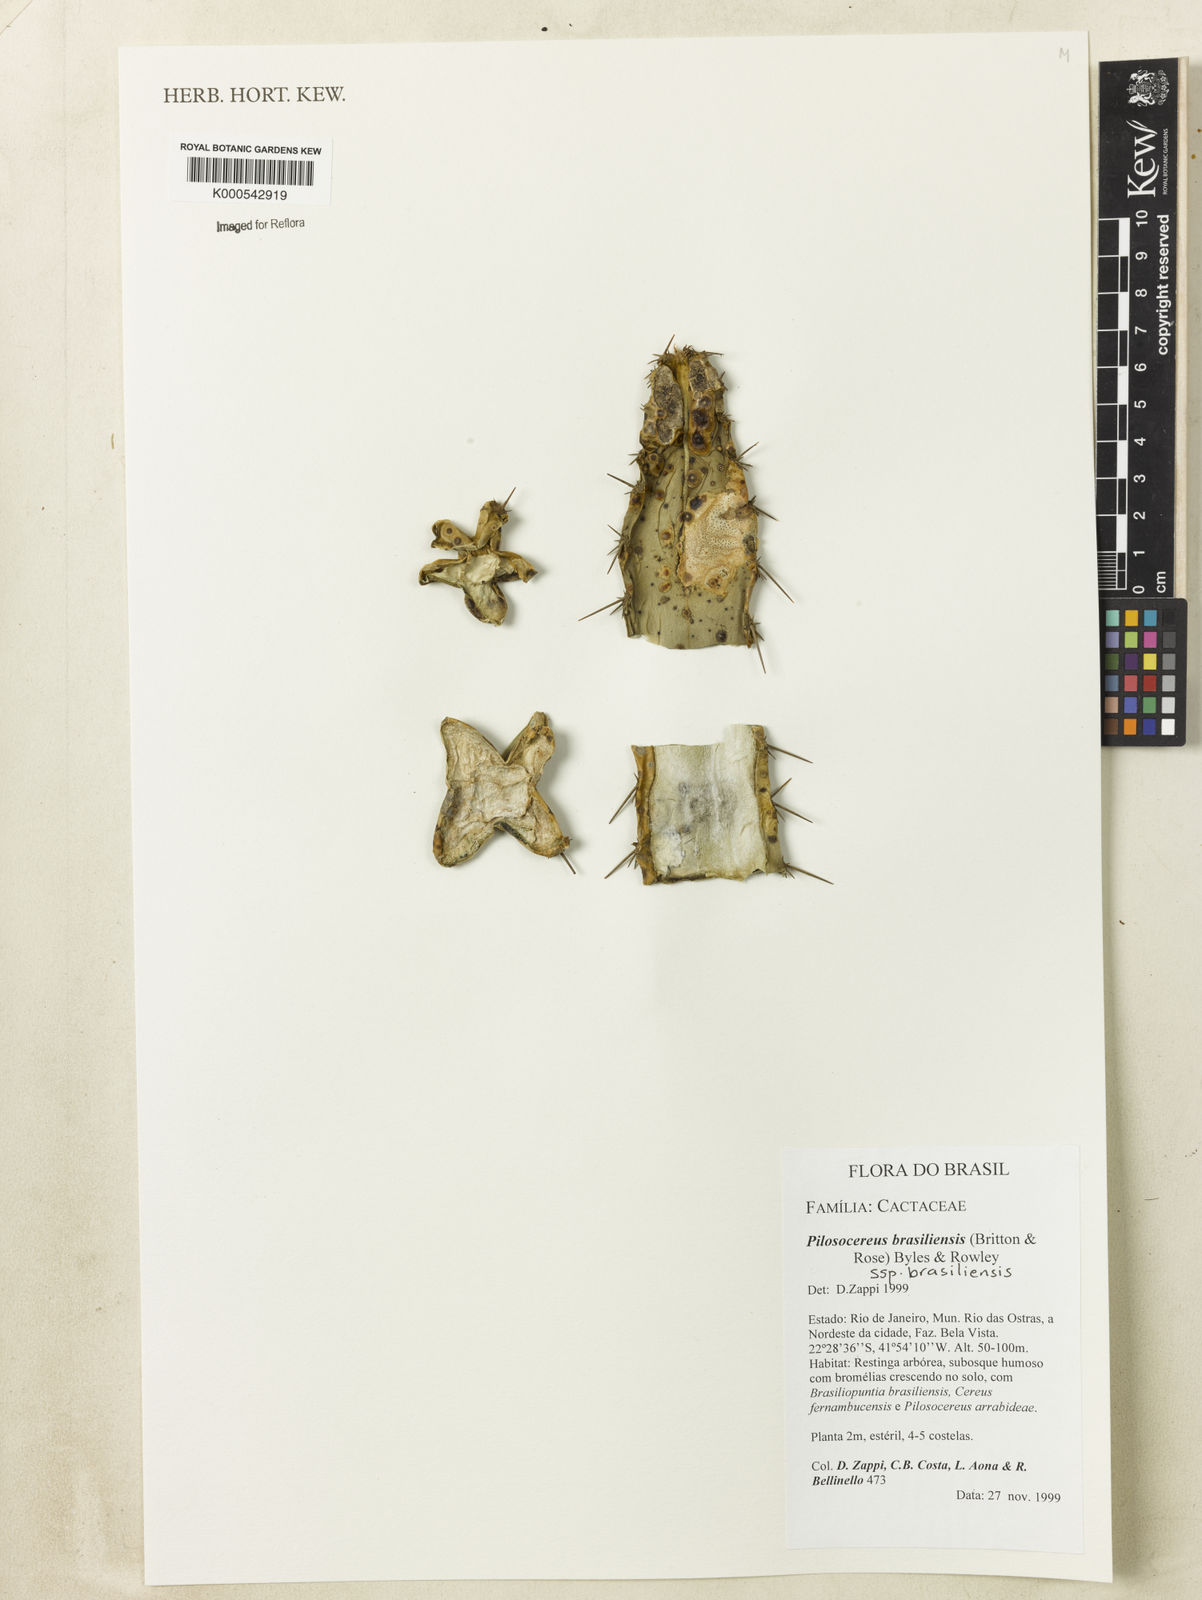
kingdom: Plantae
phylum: Tracheophyta
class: Magnoliopsida
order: Caryophyllales
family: Cactaceae
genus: Pilosocereus
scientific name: Pilosocereus
